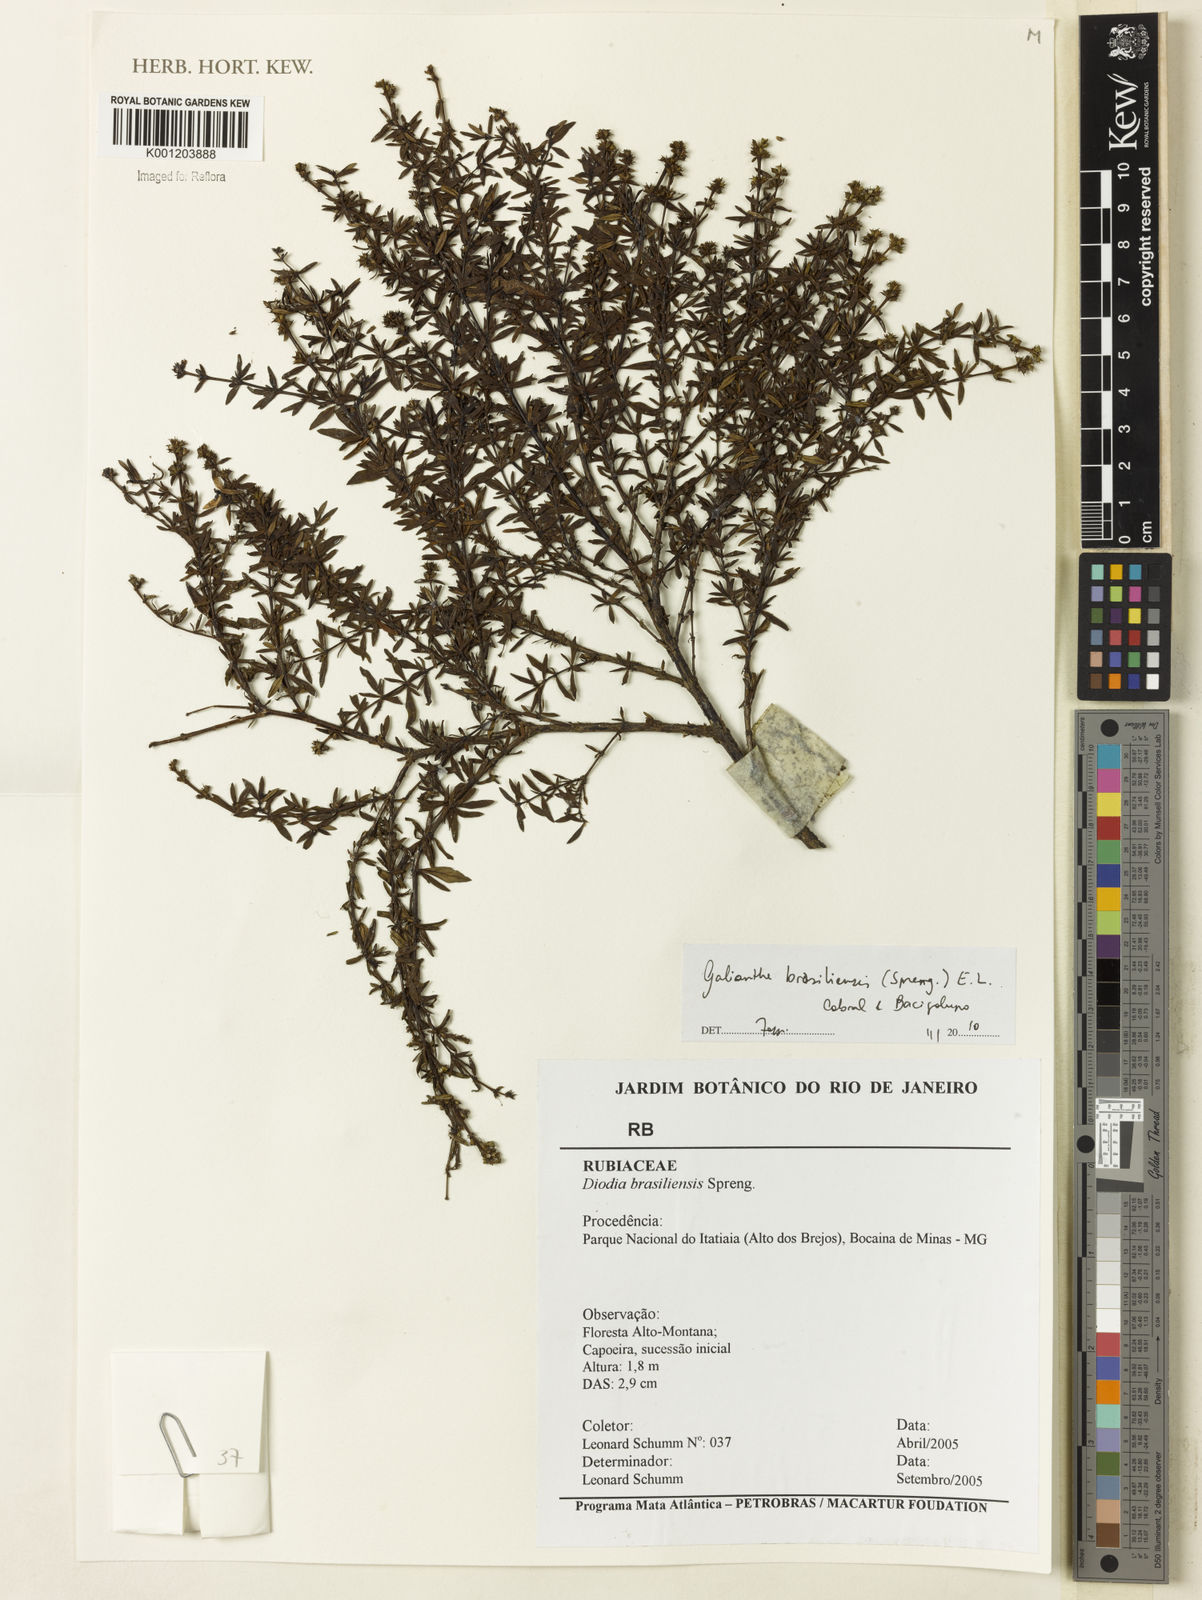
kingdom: Plantae
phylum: Tracheophyta
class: Magnoliopsida
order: Gentianales
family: Rubiaceae
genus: Galianthe
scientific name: Galianthe brasiliensis
